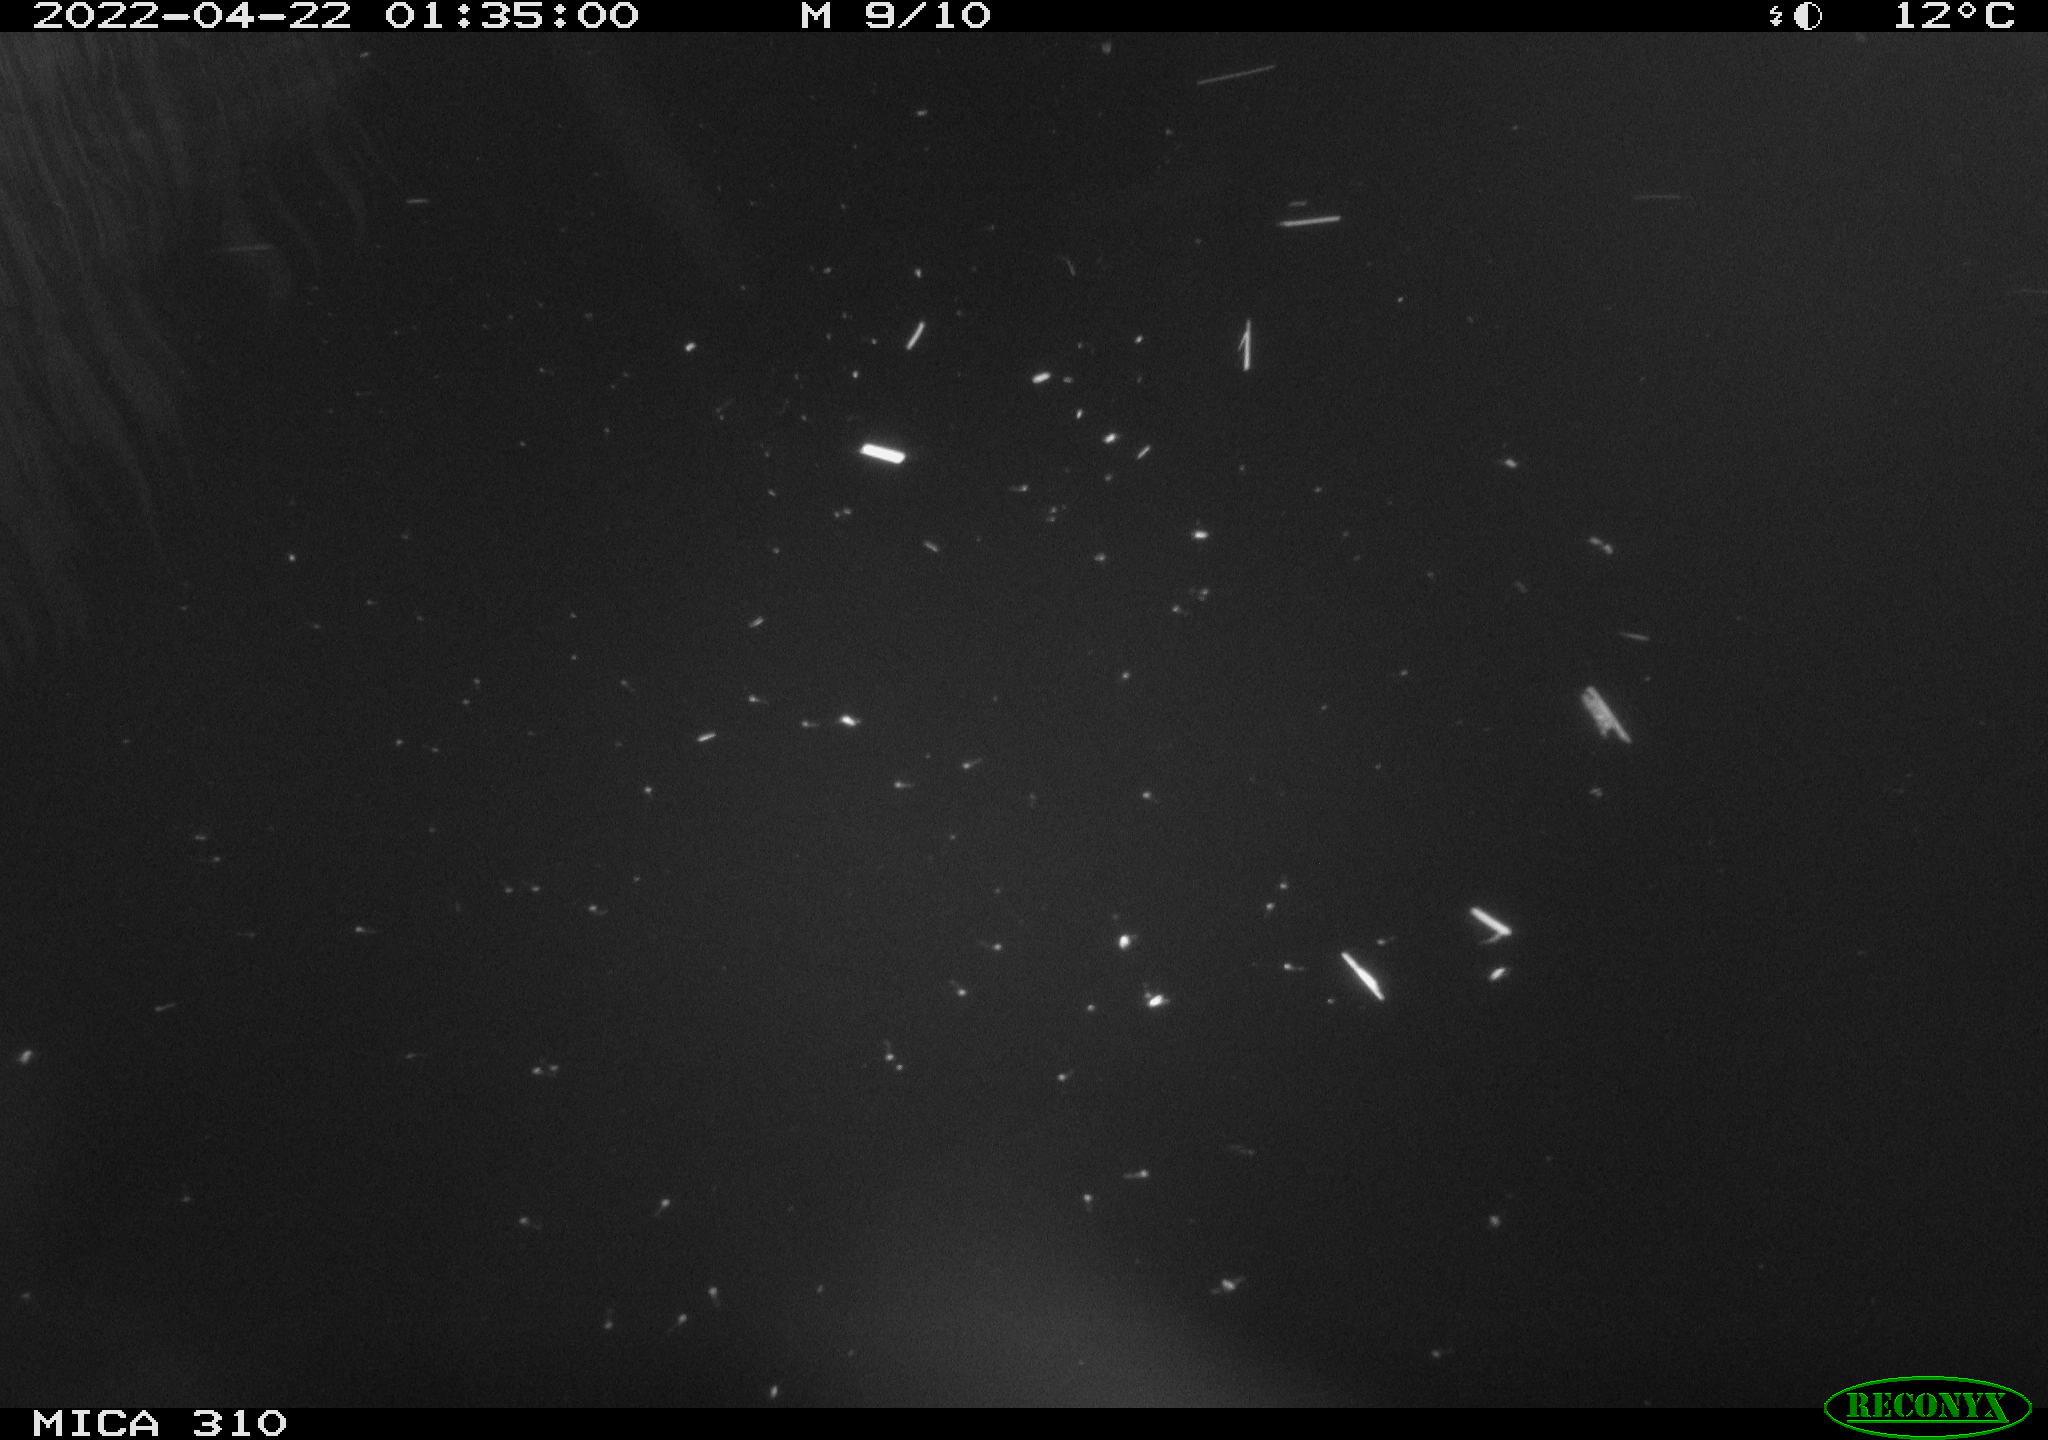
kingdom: Animalia
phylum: Chordata
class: Aves
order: Anseriformes
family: Anatidae
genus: Anas
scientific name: Anas platyrhynchos
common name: Mallard
